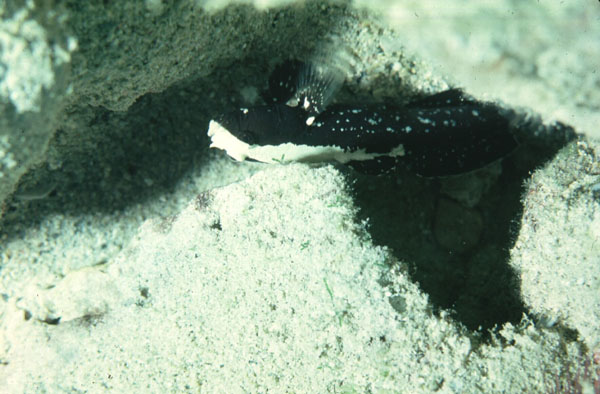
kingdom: Animalia
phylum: Chordata
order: Perciformes
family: Gobiidae
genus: Cryptocentrus
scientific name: Cryptocentrus malindiensis
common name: Chocolate shrimp-goby
